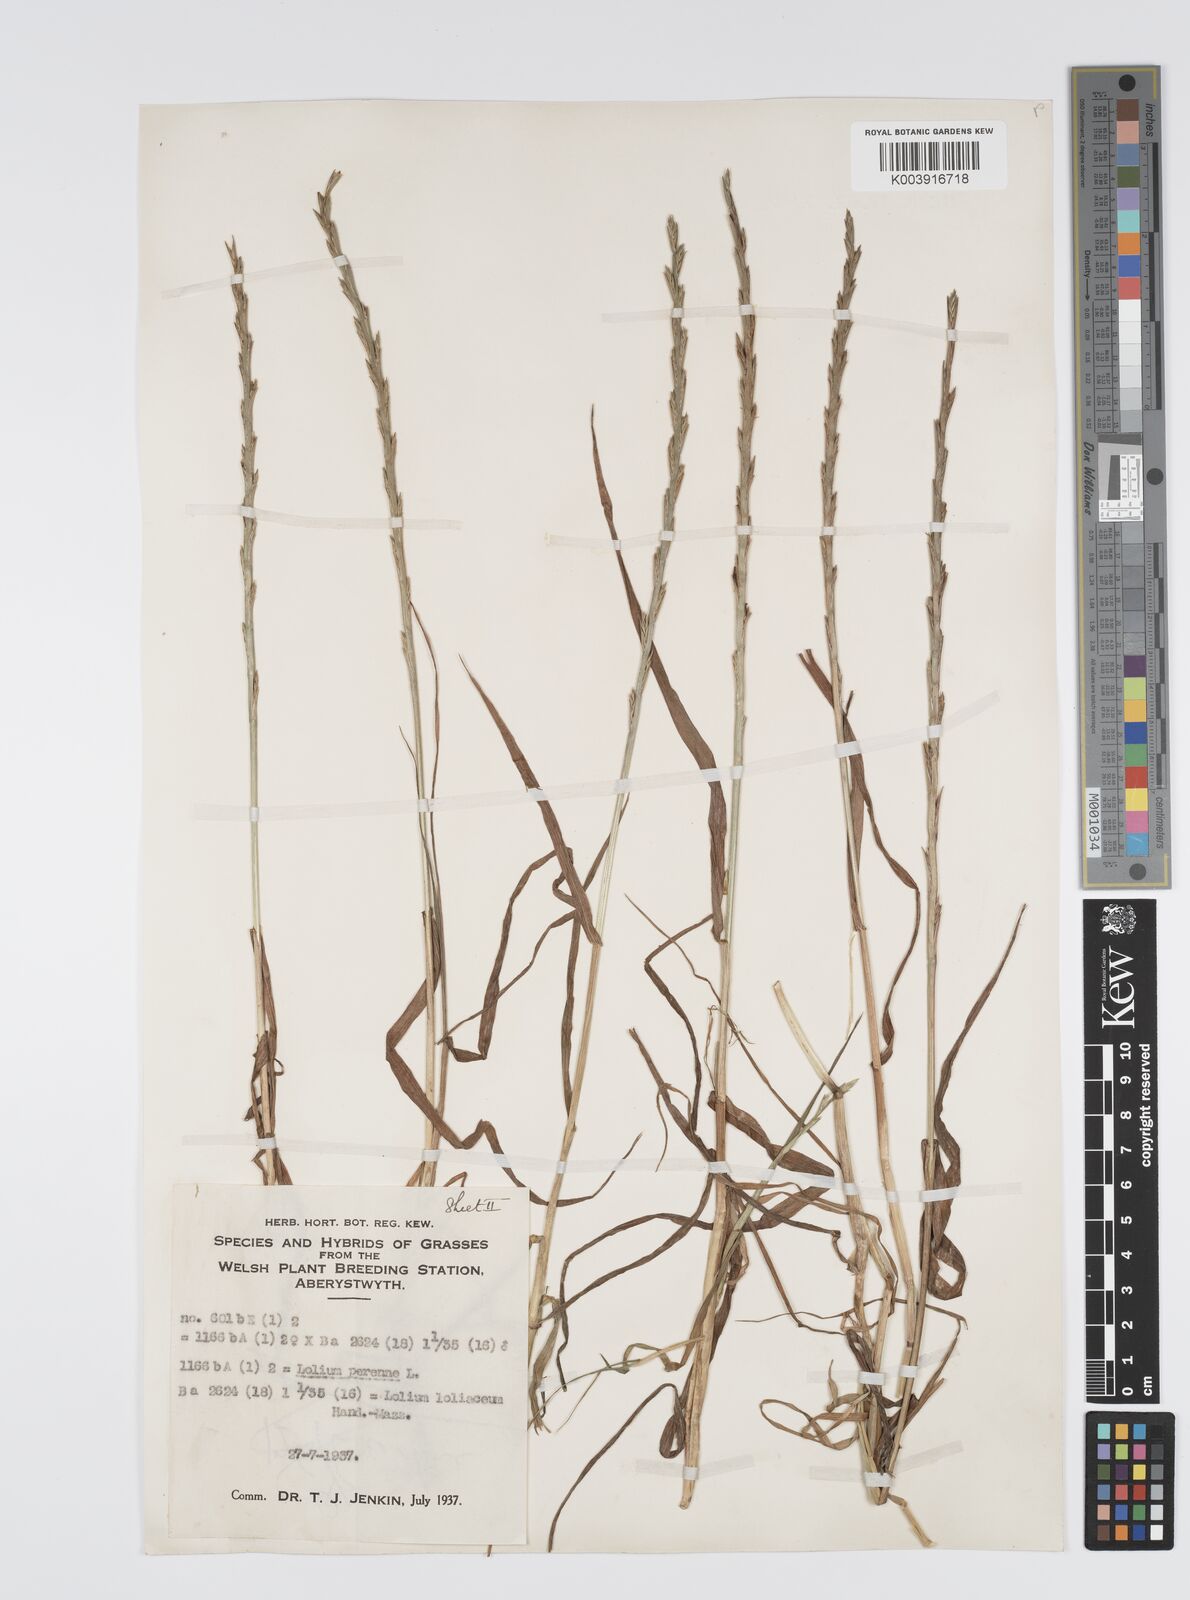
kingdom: Plantae
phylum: Tracheophyta
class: Liliopsida
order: Poales
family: Poaceae
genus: Lolium
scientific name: Lolium perenne
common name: Perennial ryegrass
